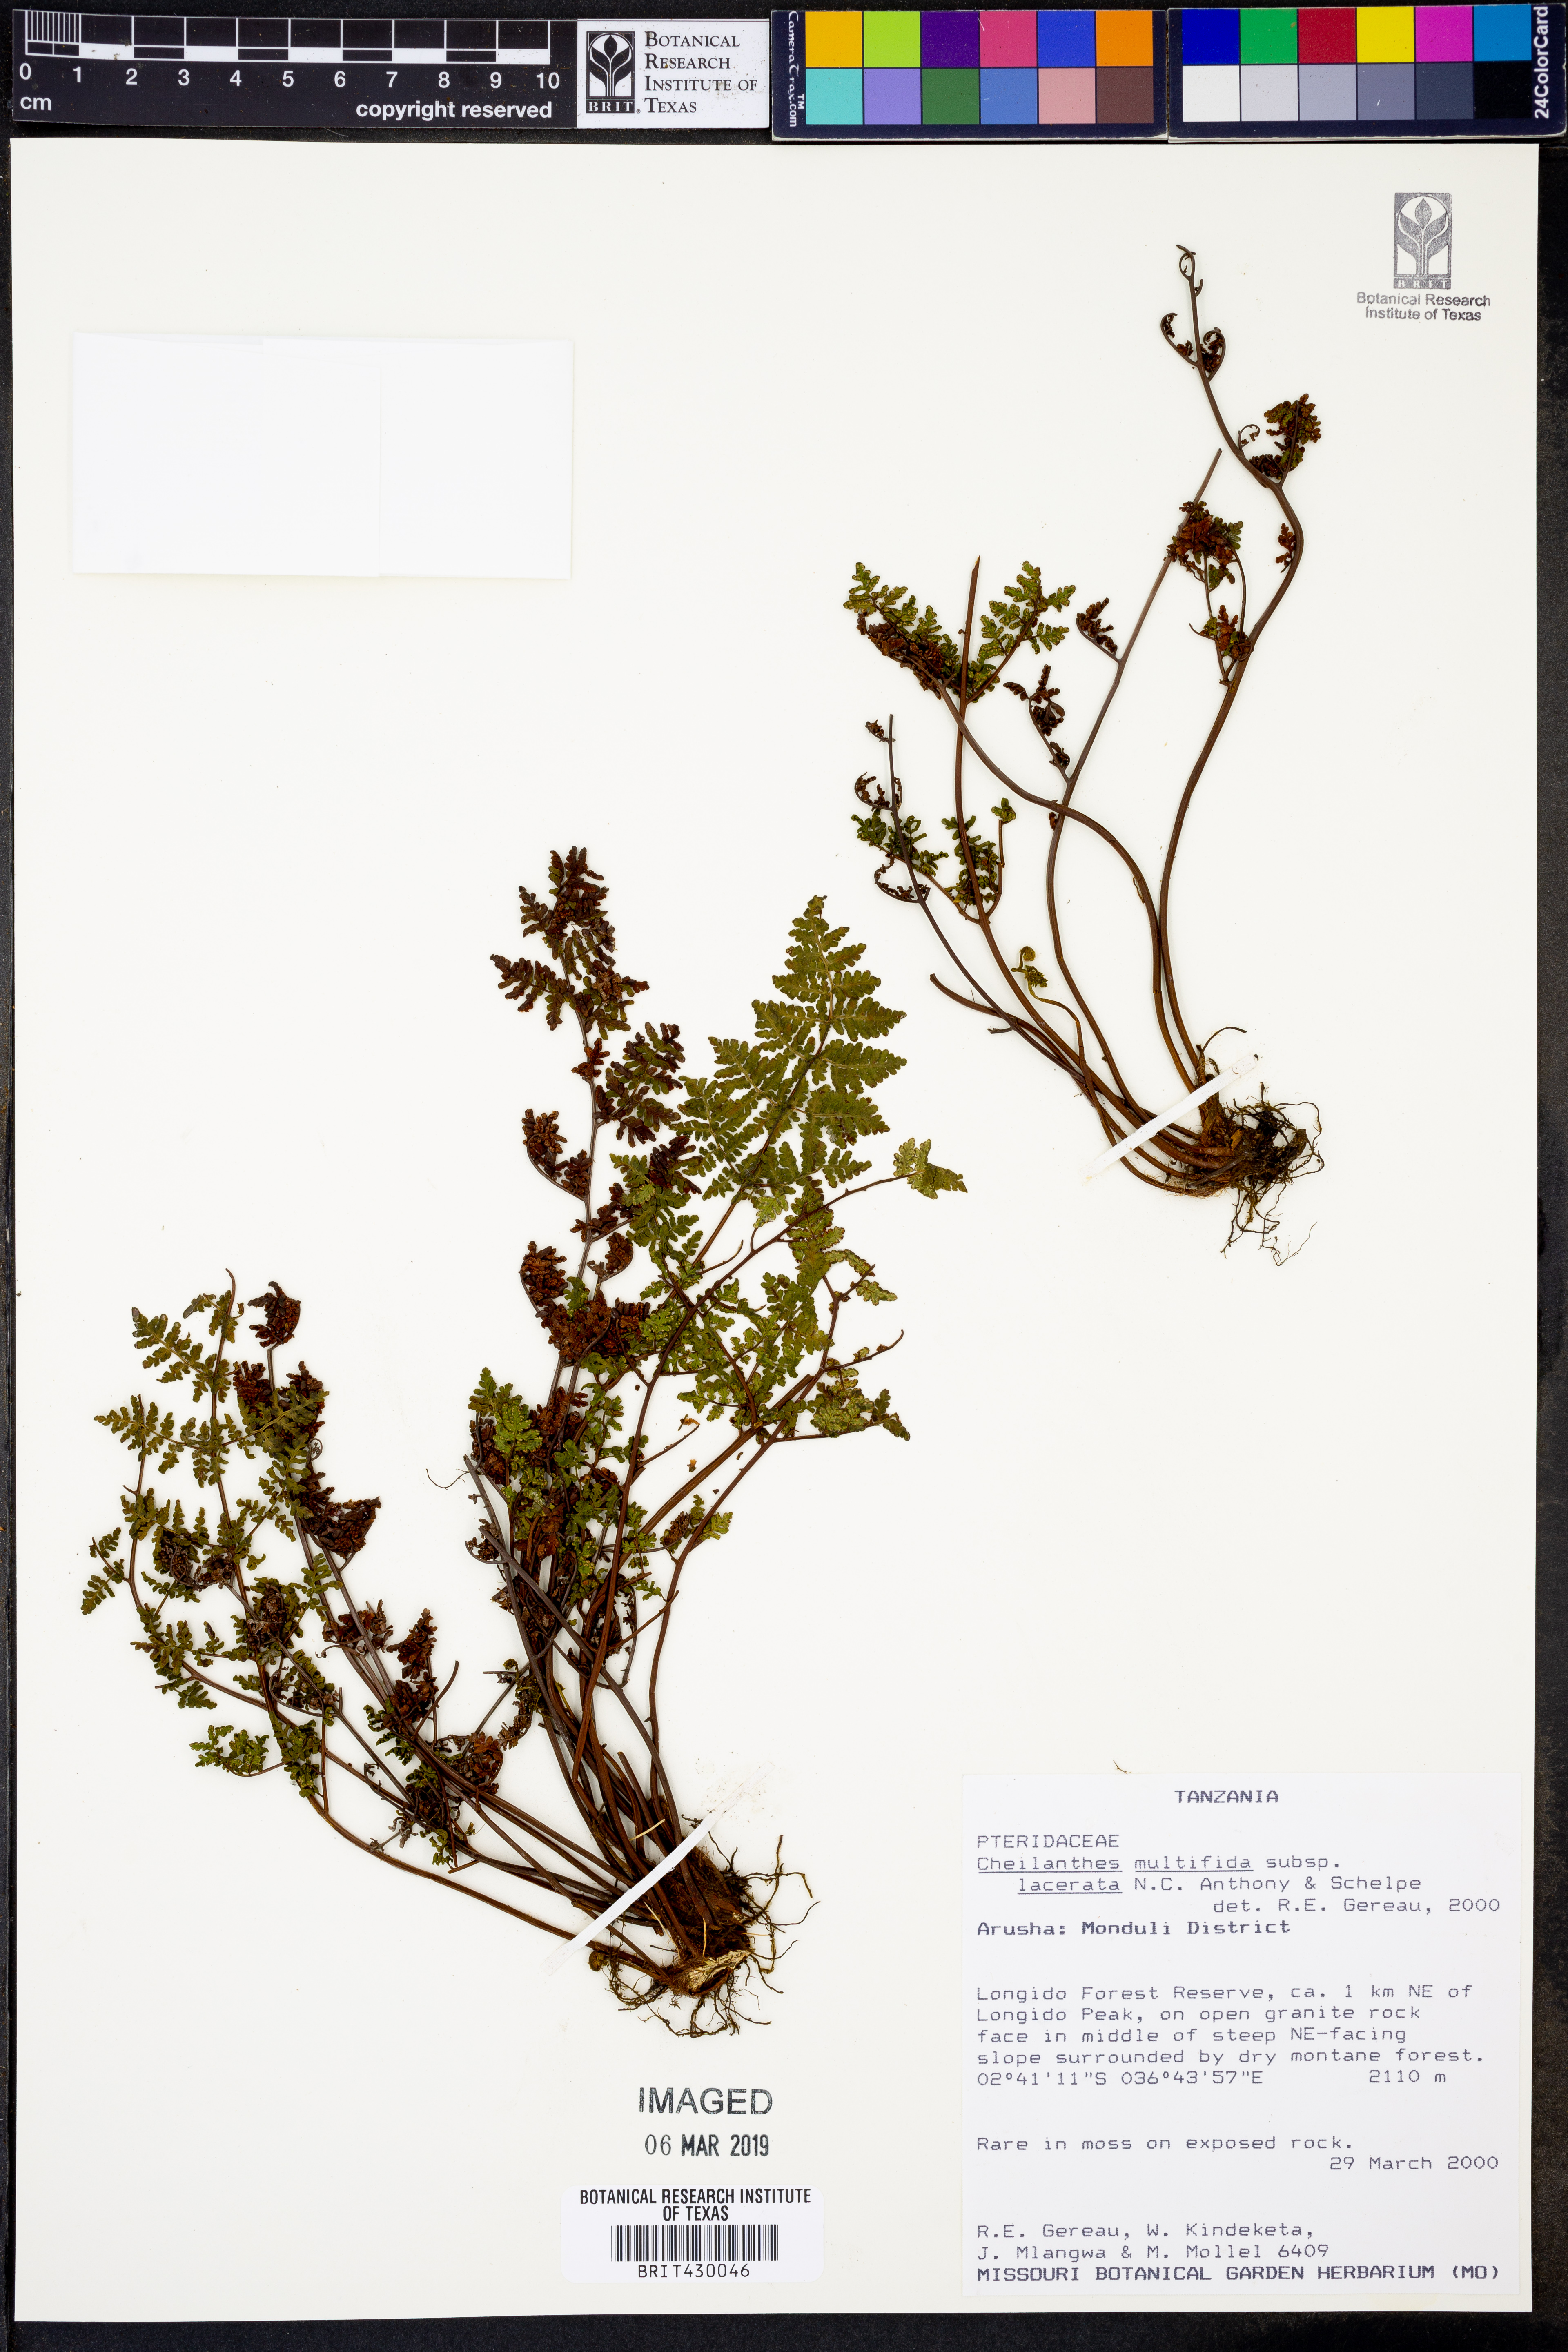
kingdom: Plantae
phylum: Tracheophyta
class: Polypodiopsida
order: Polypodiales
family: Pteridaceae
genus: Cheilanthes
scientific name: Cheilanthes multifida
